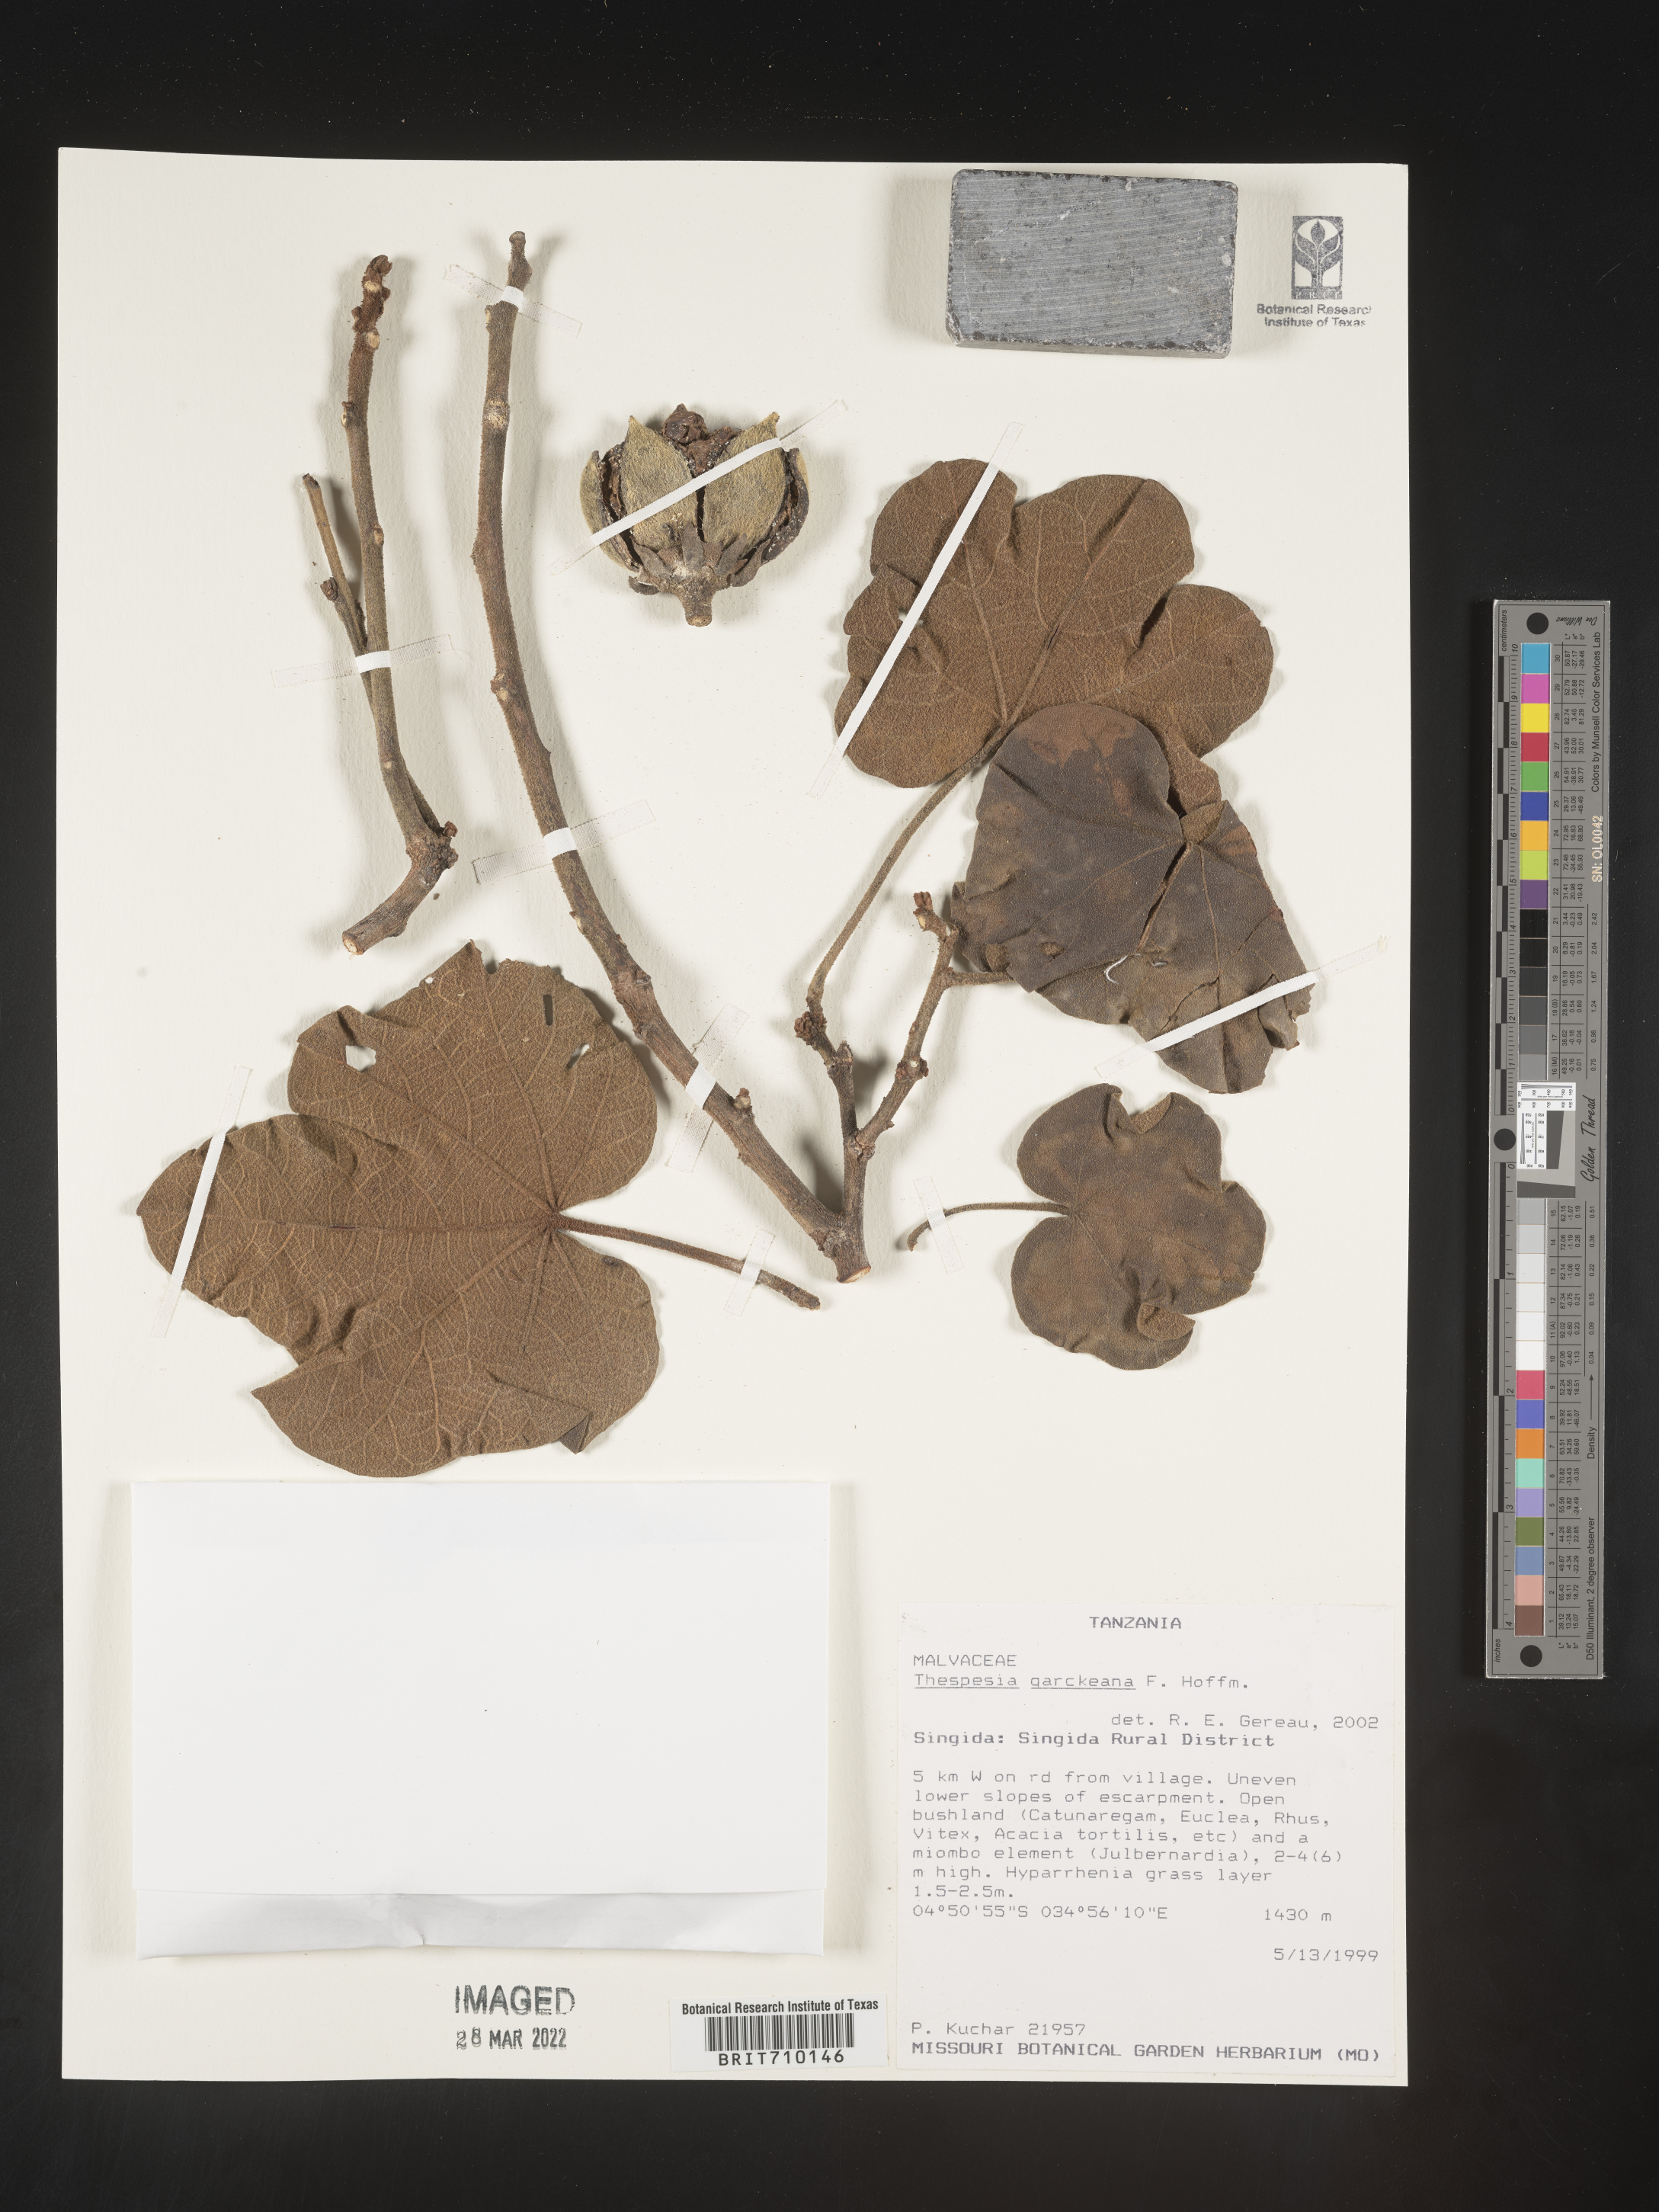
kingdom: Plantae
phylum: Tracheophyta
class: Magnoliopsida
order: Malvales
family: Malvaceae
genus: Thespesia
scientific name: Thespesia
